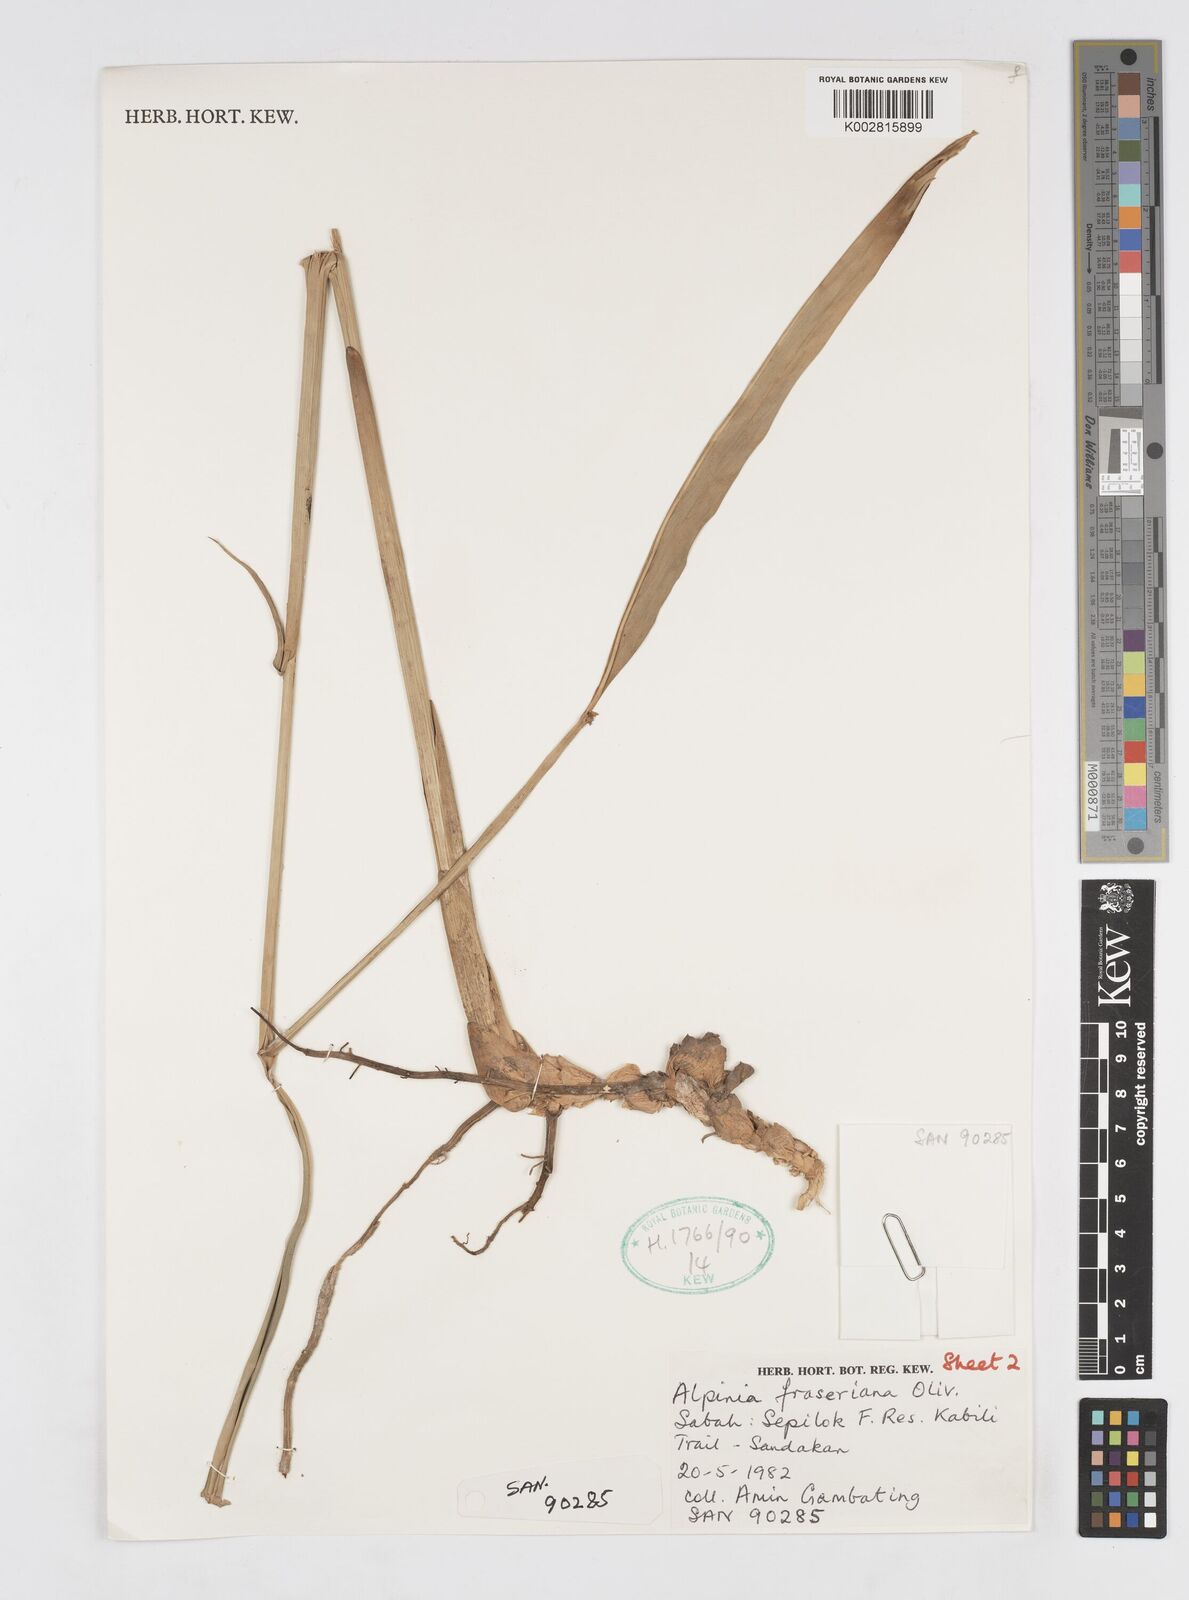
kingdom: Plantae
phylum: Tracheophyta
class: Liliopsida
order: Zingiberales
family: Zingiberaceae
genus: Alpinia
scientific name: Alpinia aquatica
